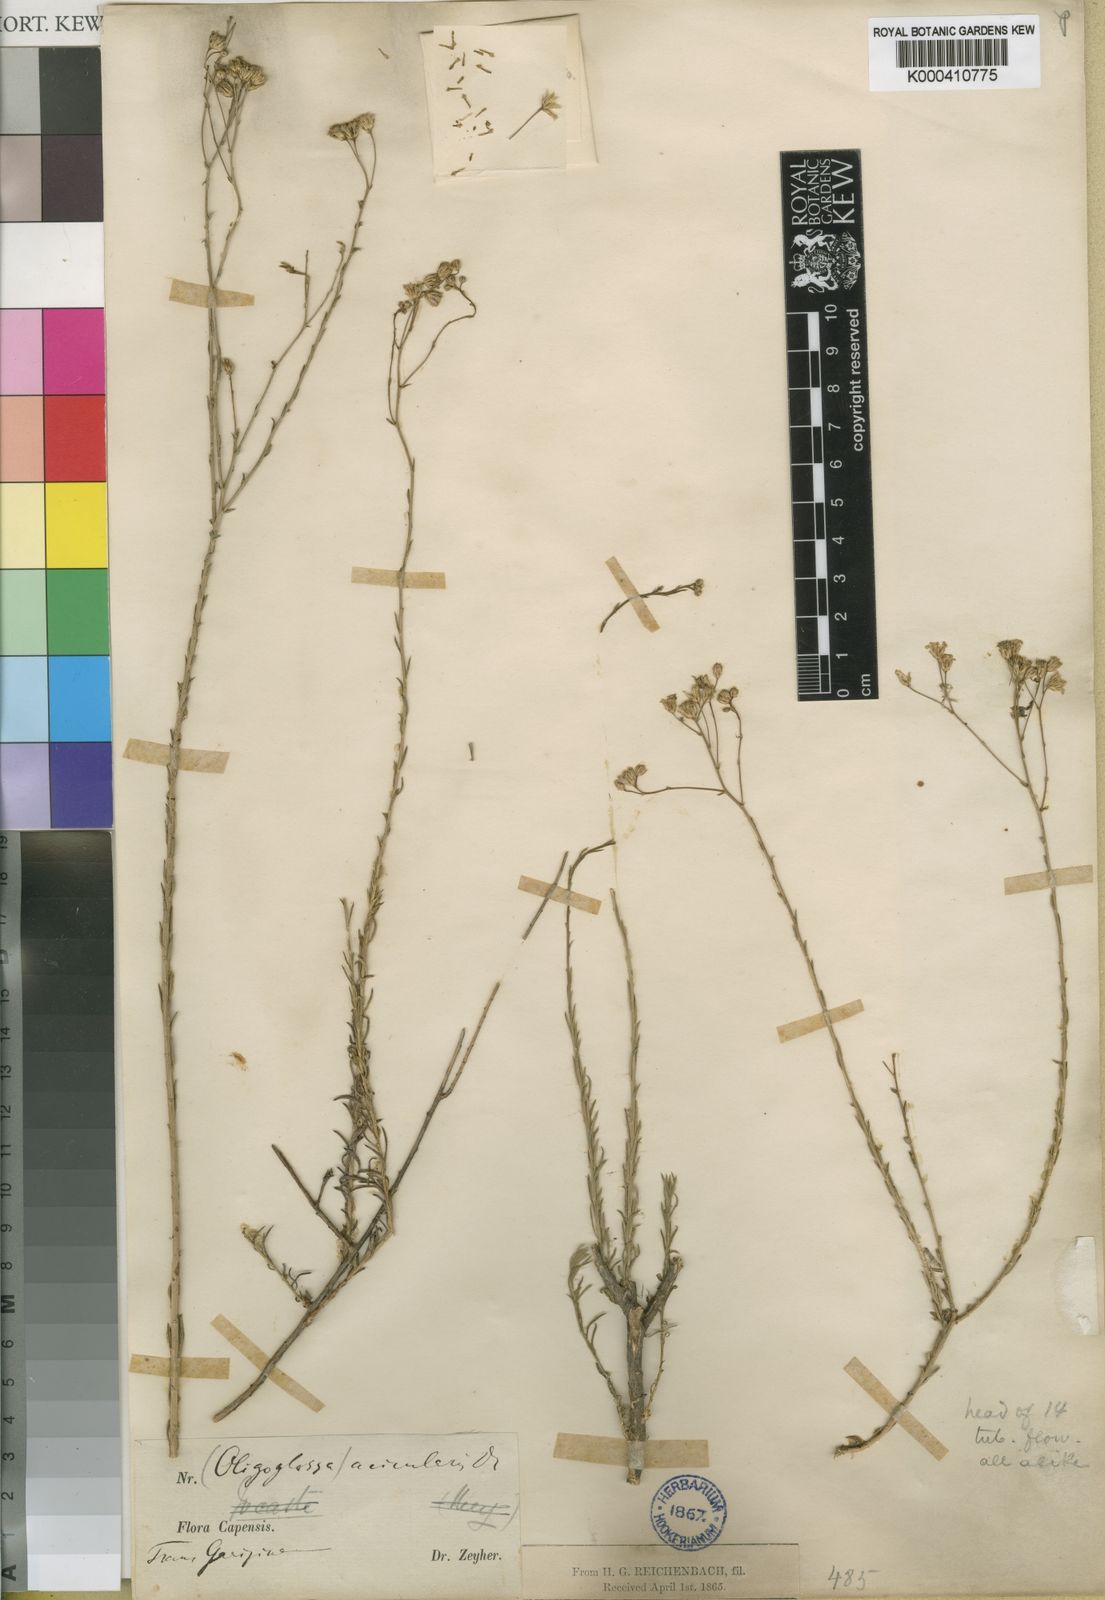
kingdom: Plantae
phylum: Tracheophyta
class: Magnoliopsida
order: Asterales
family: Asteraceae
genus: Phymaspermum
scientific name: Phymaspermum
